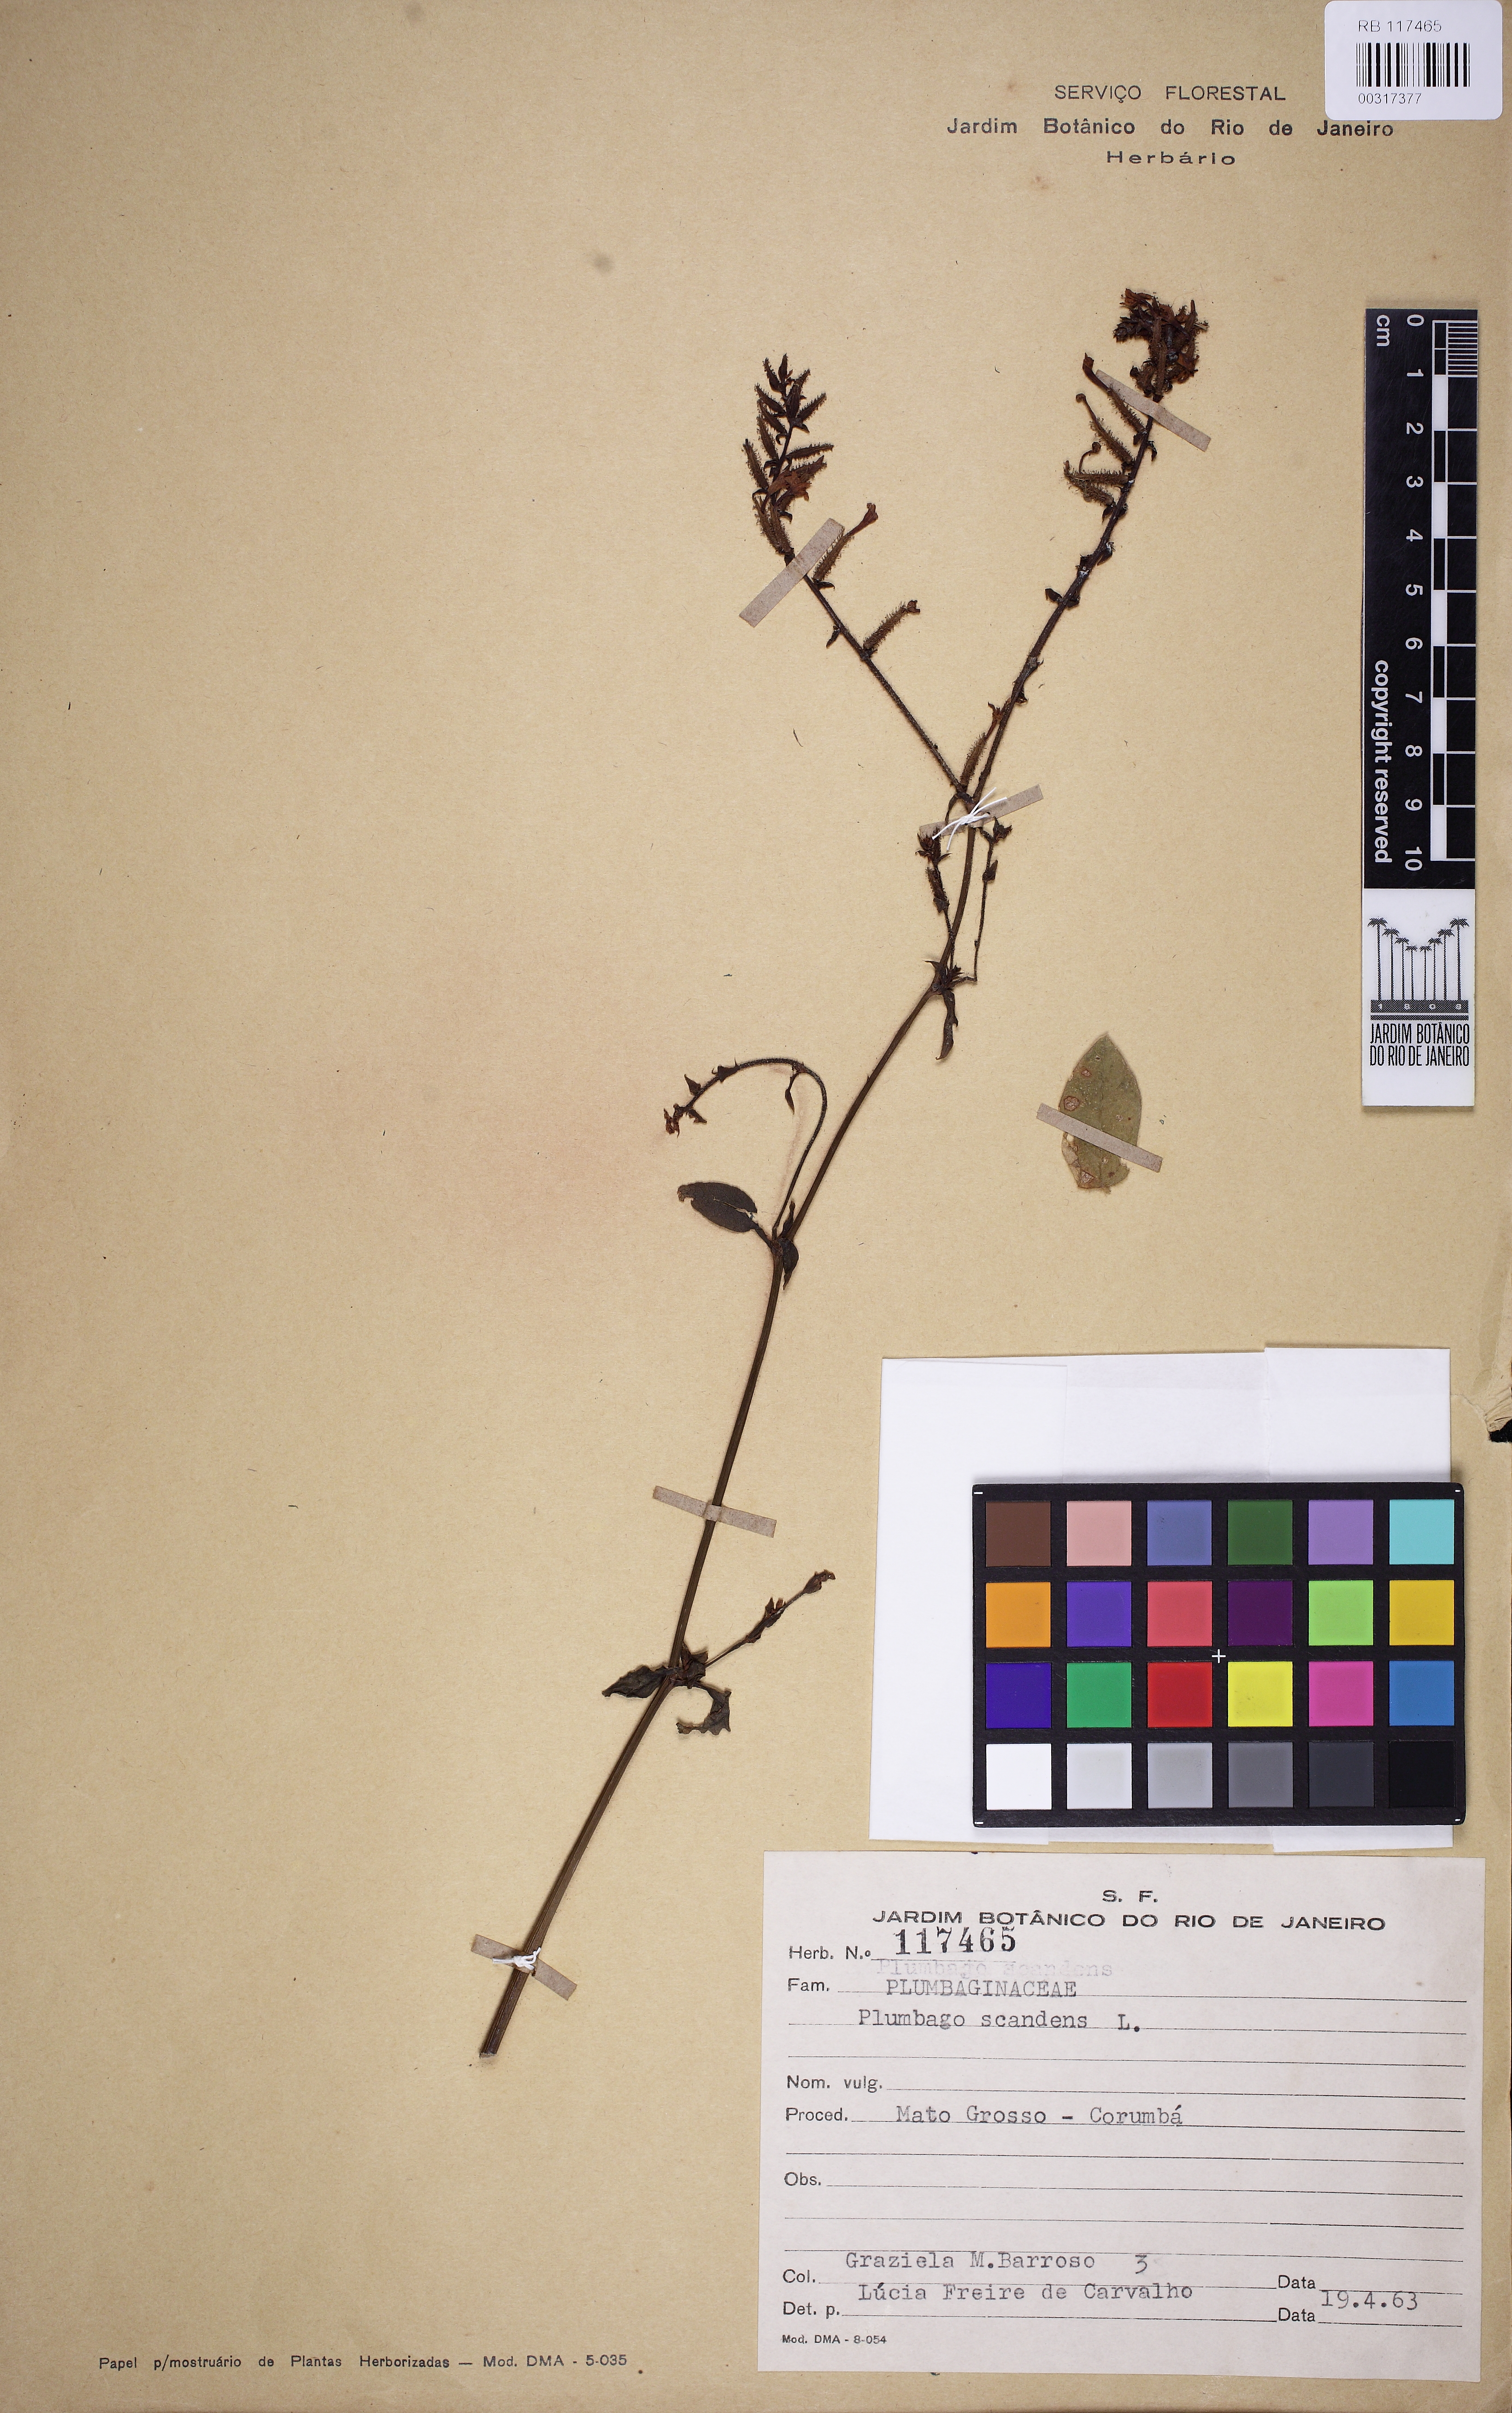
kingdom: Plantae
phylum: Tracheophyta
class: Magnoliopsida
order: Caryophyllales
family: Plumbaginaceae
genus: Plumbago
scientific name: Plumbago zeylanica
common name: Doctorbush
